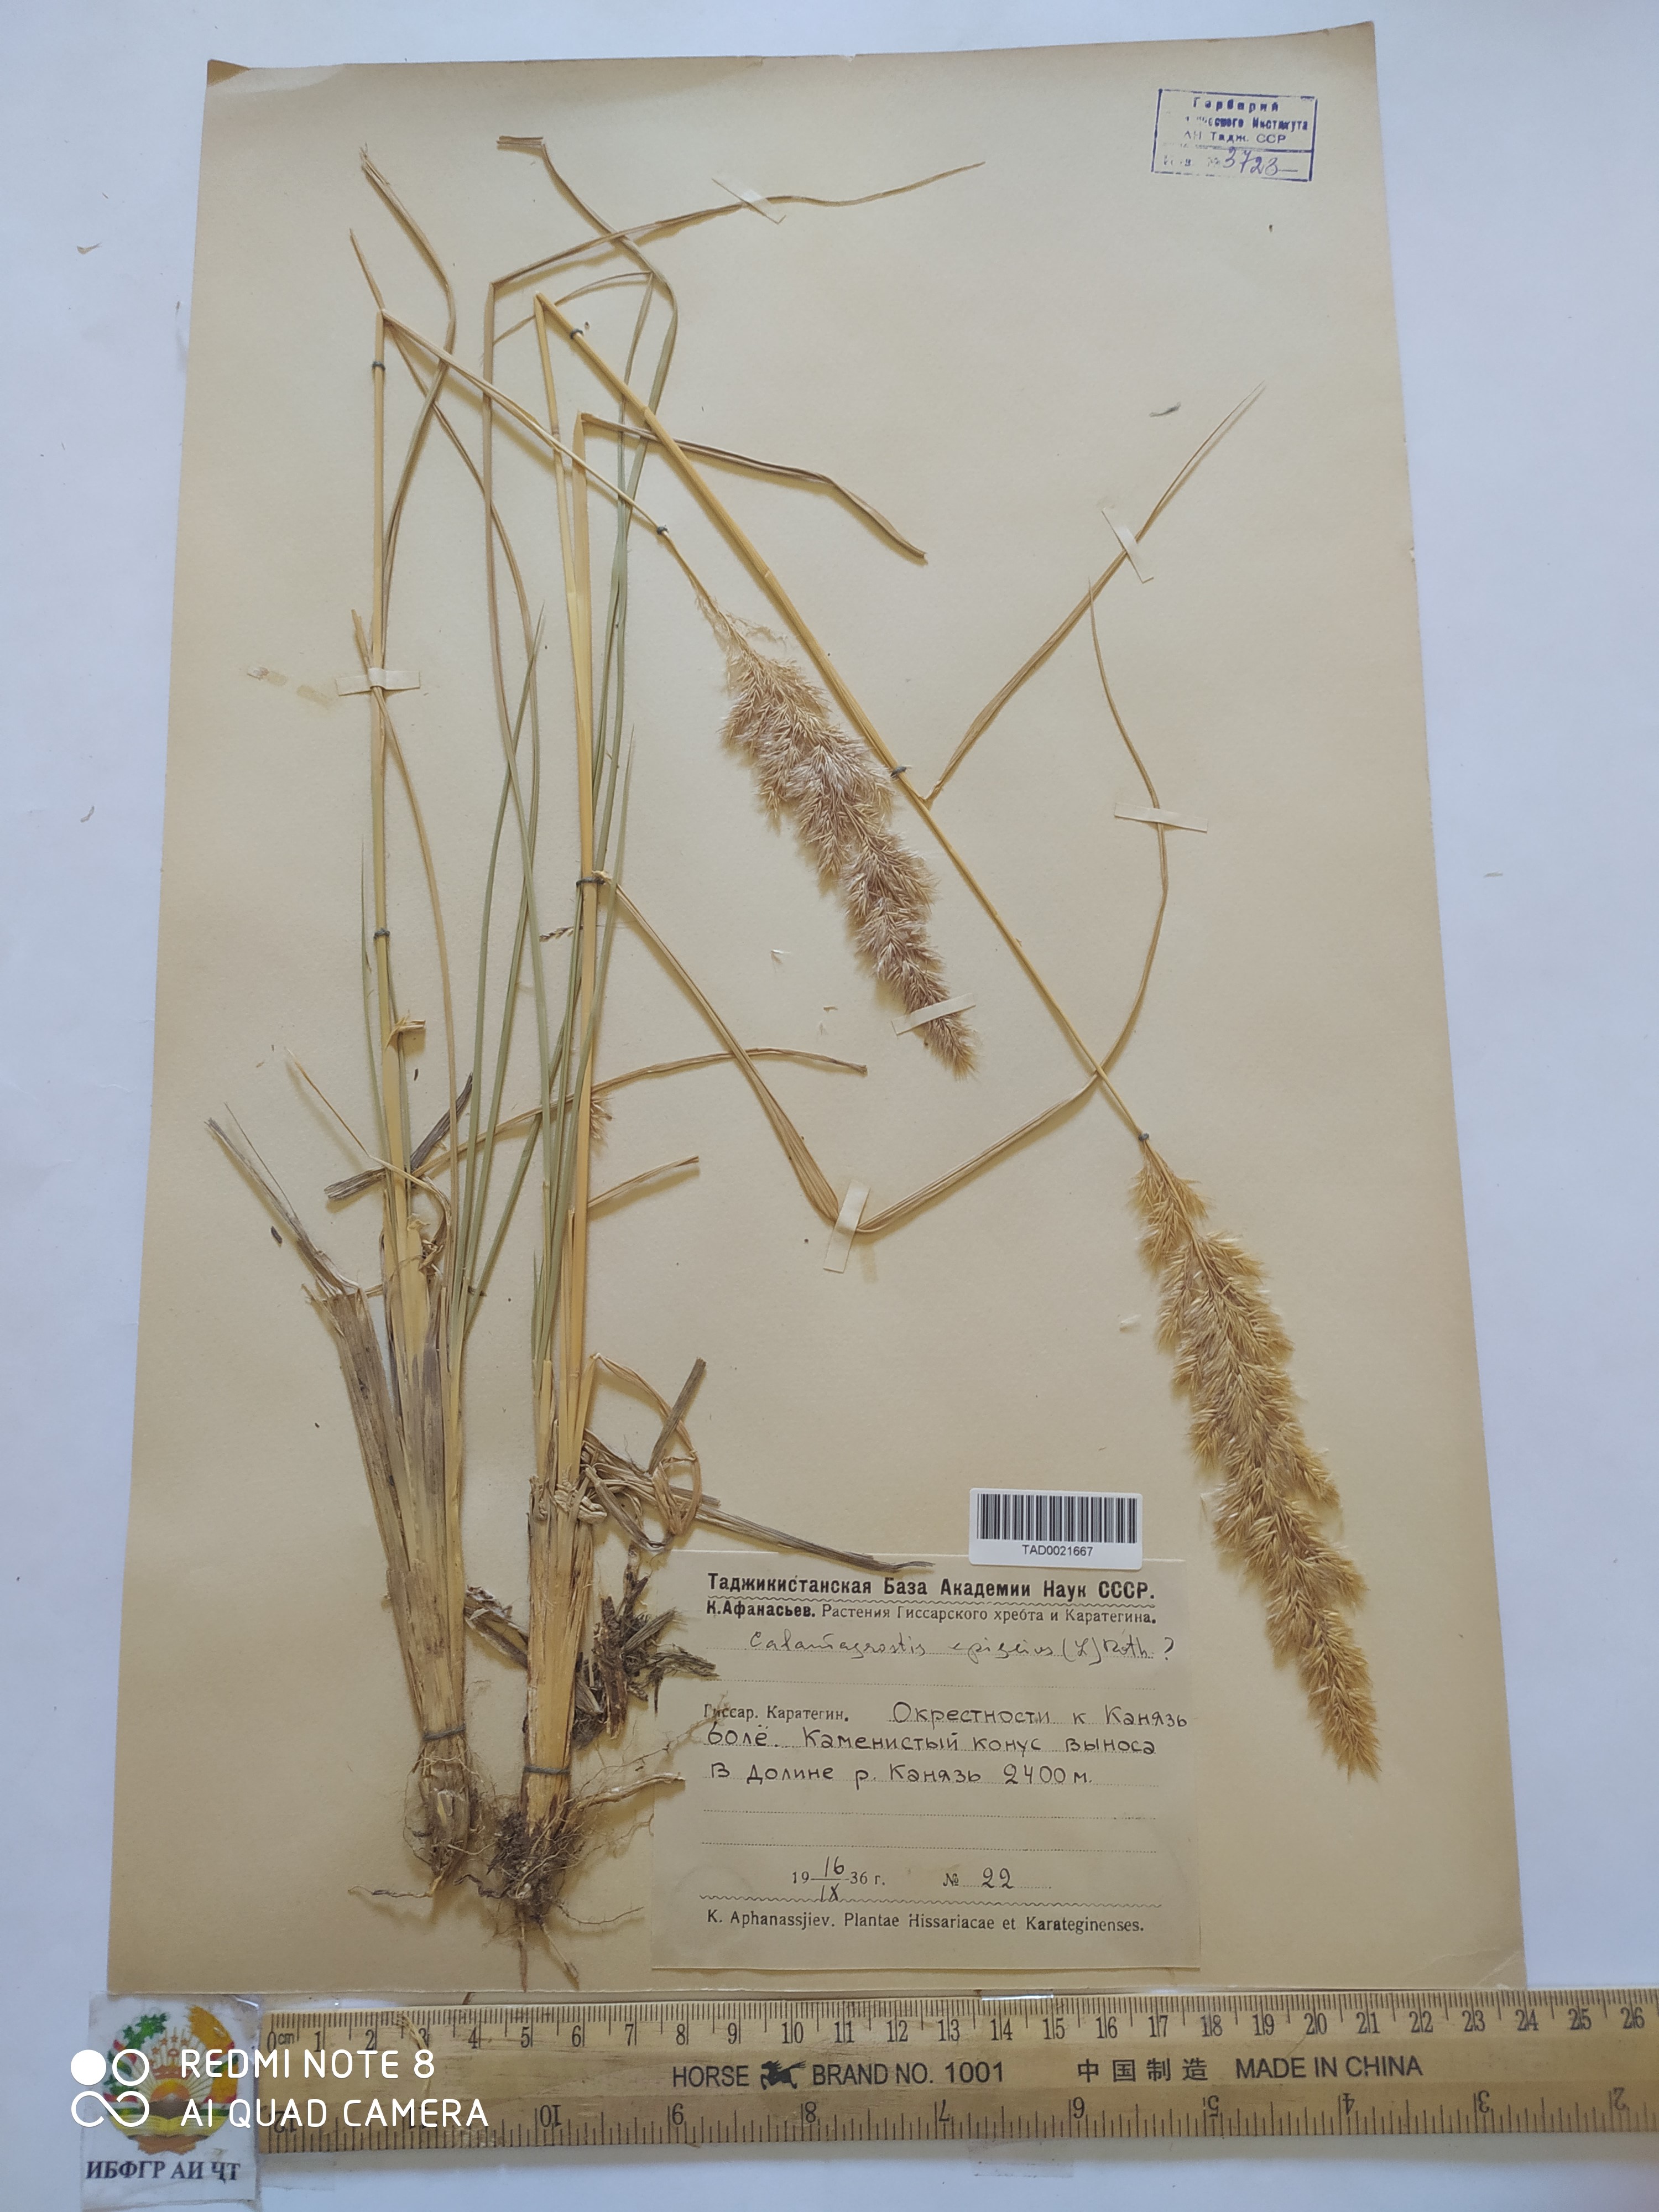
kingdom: Plantae
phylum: Tracheophyta
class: Liliopsida
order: Poales
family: Poaceae
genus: Calamagrostis
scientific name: Calamagrostis epigejos
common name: Wood small-reed
